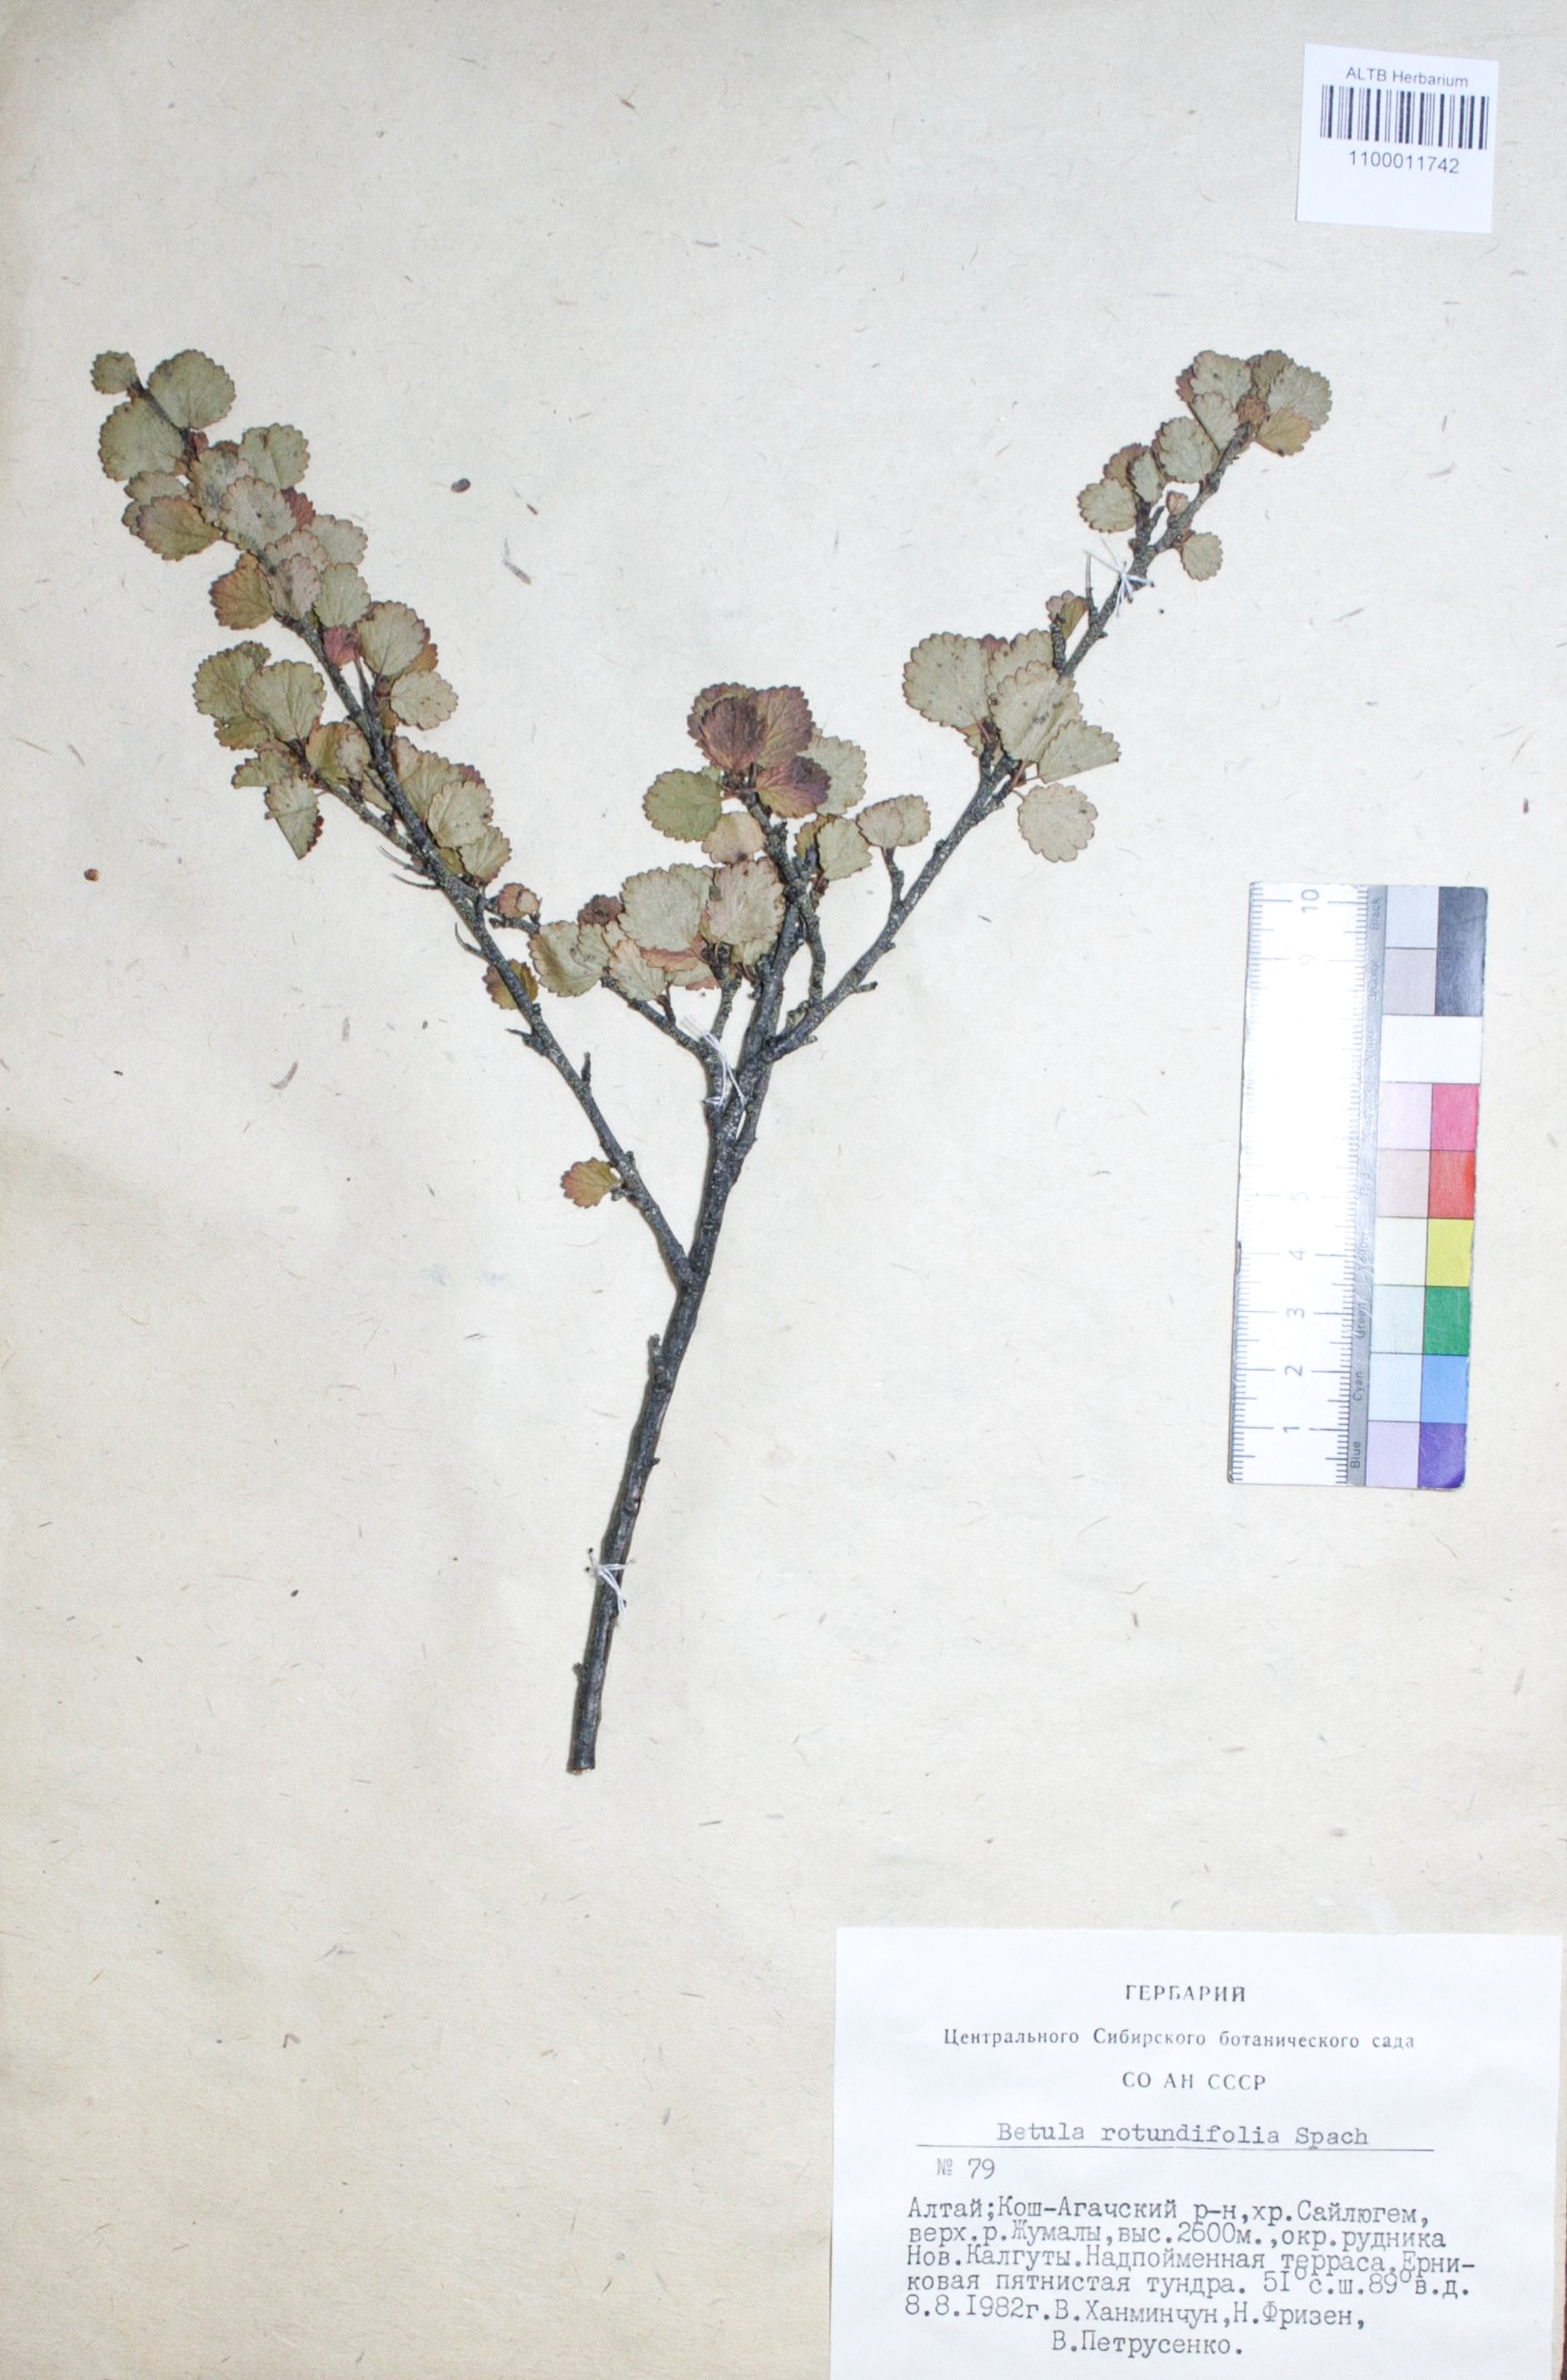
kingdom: Plantae
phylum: Tracheophyta
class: Magnoliopsida
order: Fagales
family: Betulaceae
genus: Betula
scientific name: Betula glandulosa
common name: Dwarf birch
